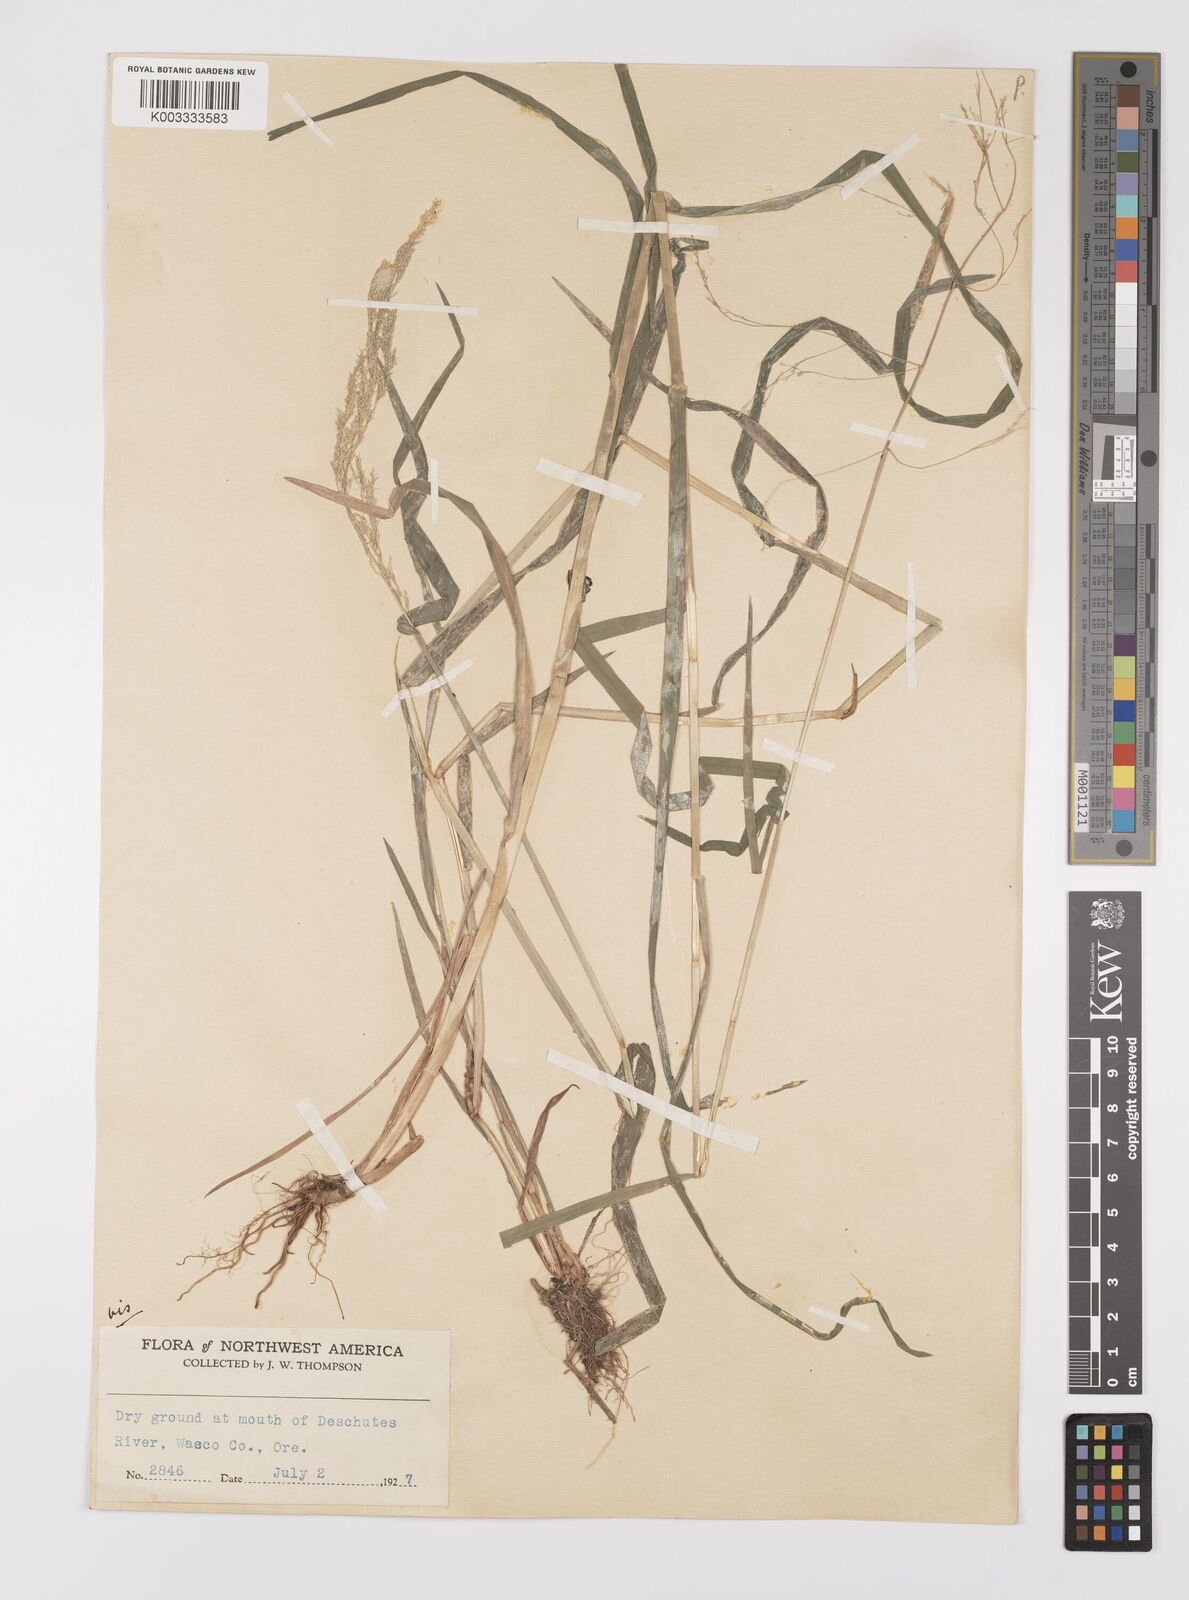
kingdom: Plantae
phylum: Tracheophyta
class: Liliopsida
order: Poales
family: Poaceae
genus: Cinna
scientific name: Cinna latifolia
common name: Drooping woodreed
